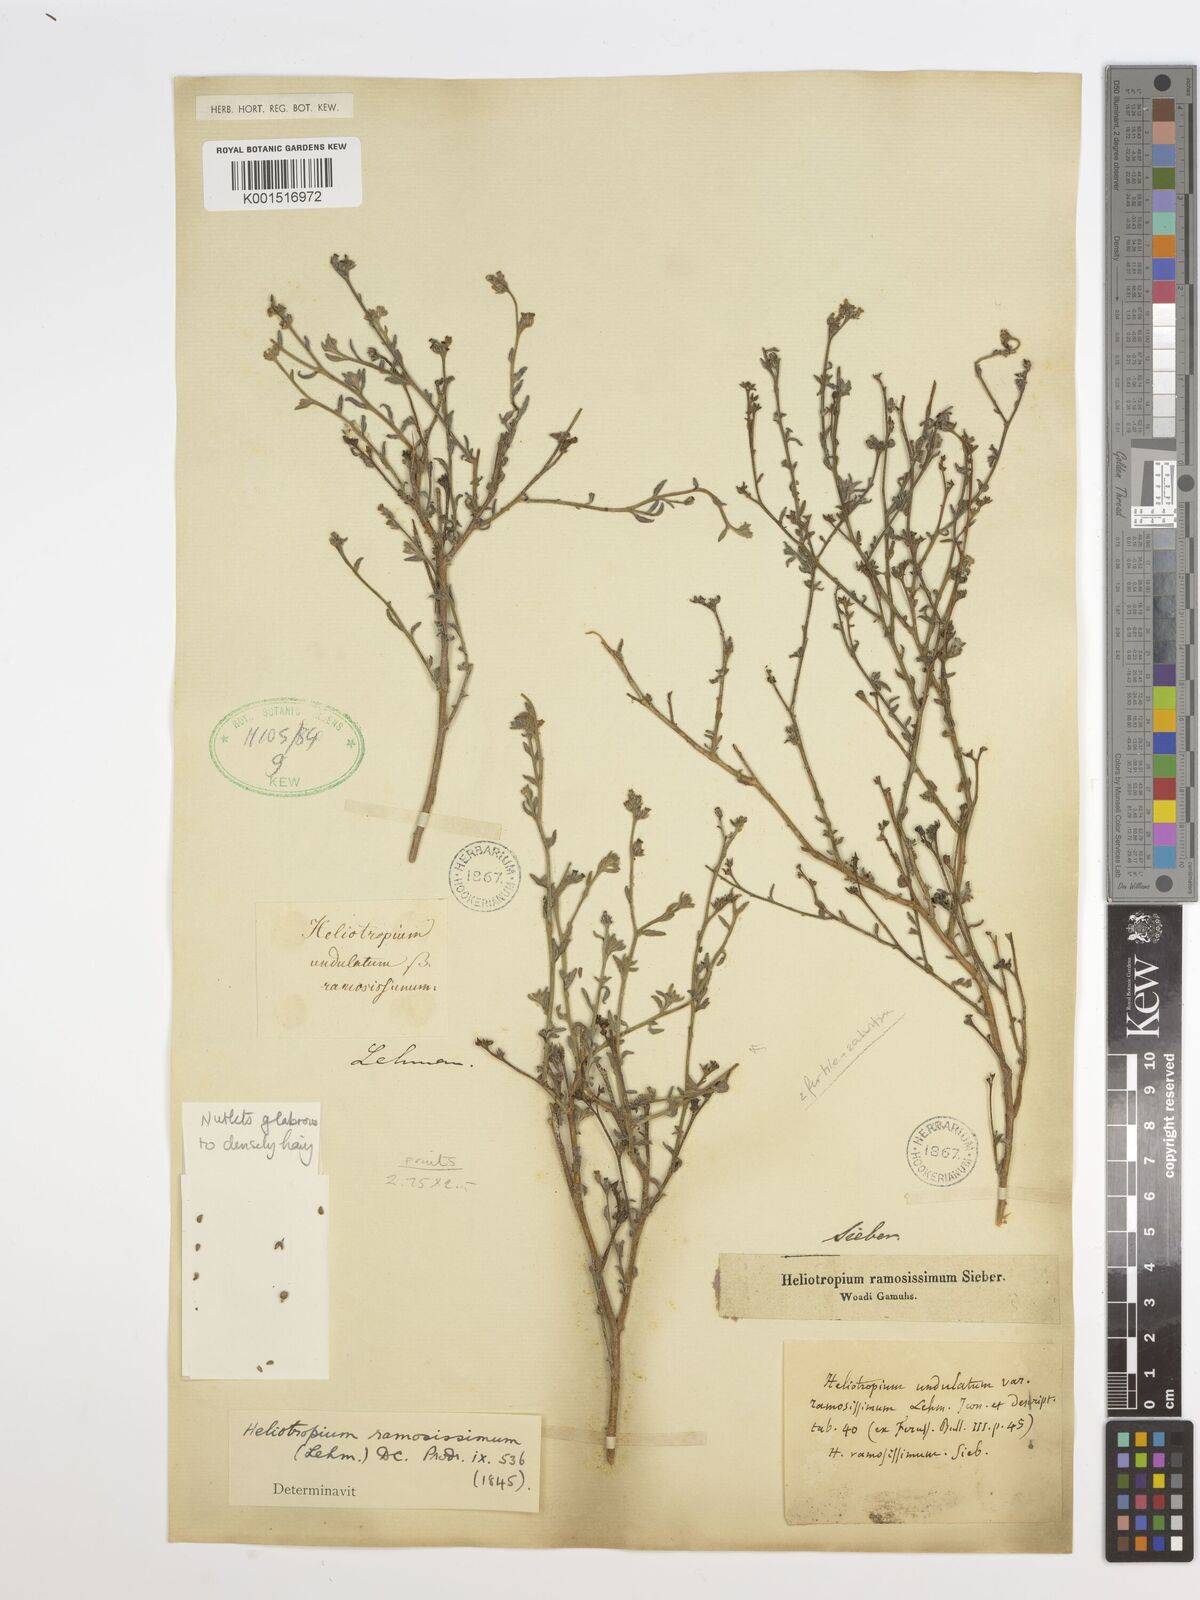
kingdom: Plantae
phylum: Tracheophyta
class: Magnoliopsida
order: Boraginales
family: Heliotropiaceae
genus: Heliotropium
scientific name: Heliotropium ramosissimum
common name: Wavy heliotrope
